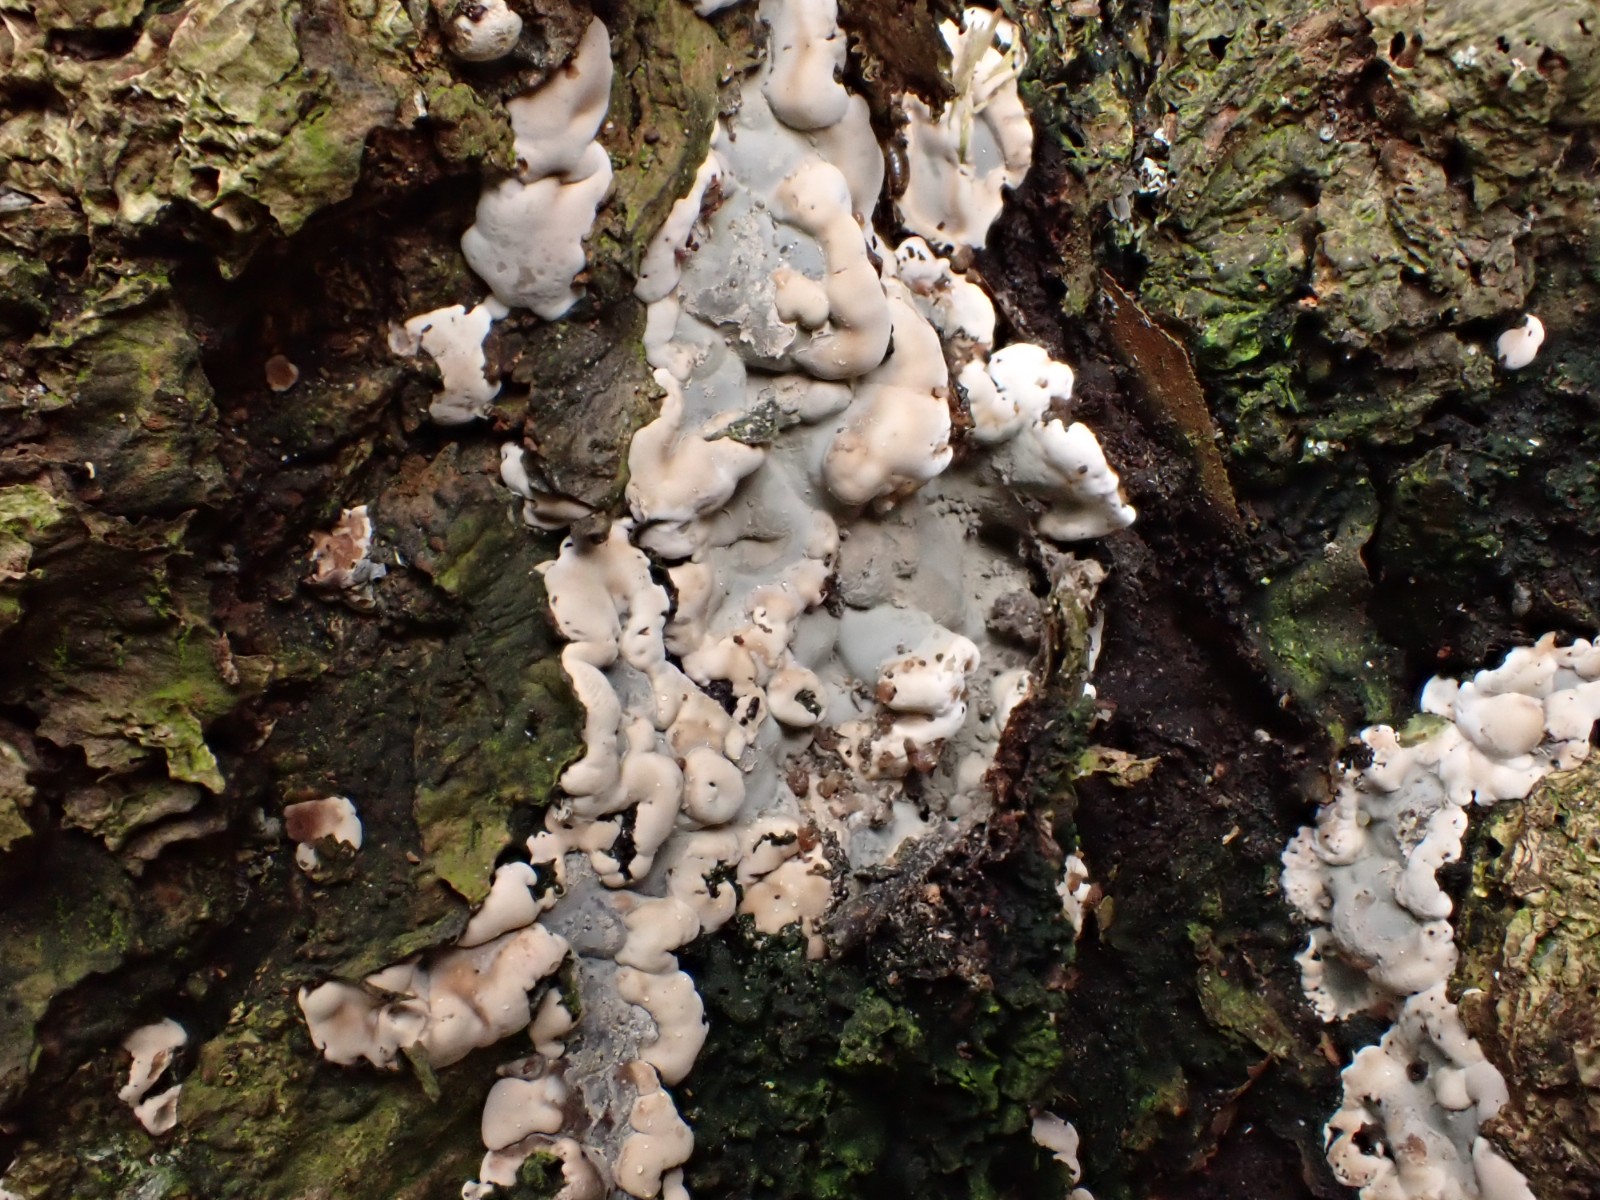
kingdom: Fungi
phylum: Ascomycota
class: Sordariomycetes
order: Xylariales
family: Xylariaceae
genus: Kretzschmaria
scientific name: Kretzschmaria deusta
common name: stor kulsvamp
